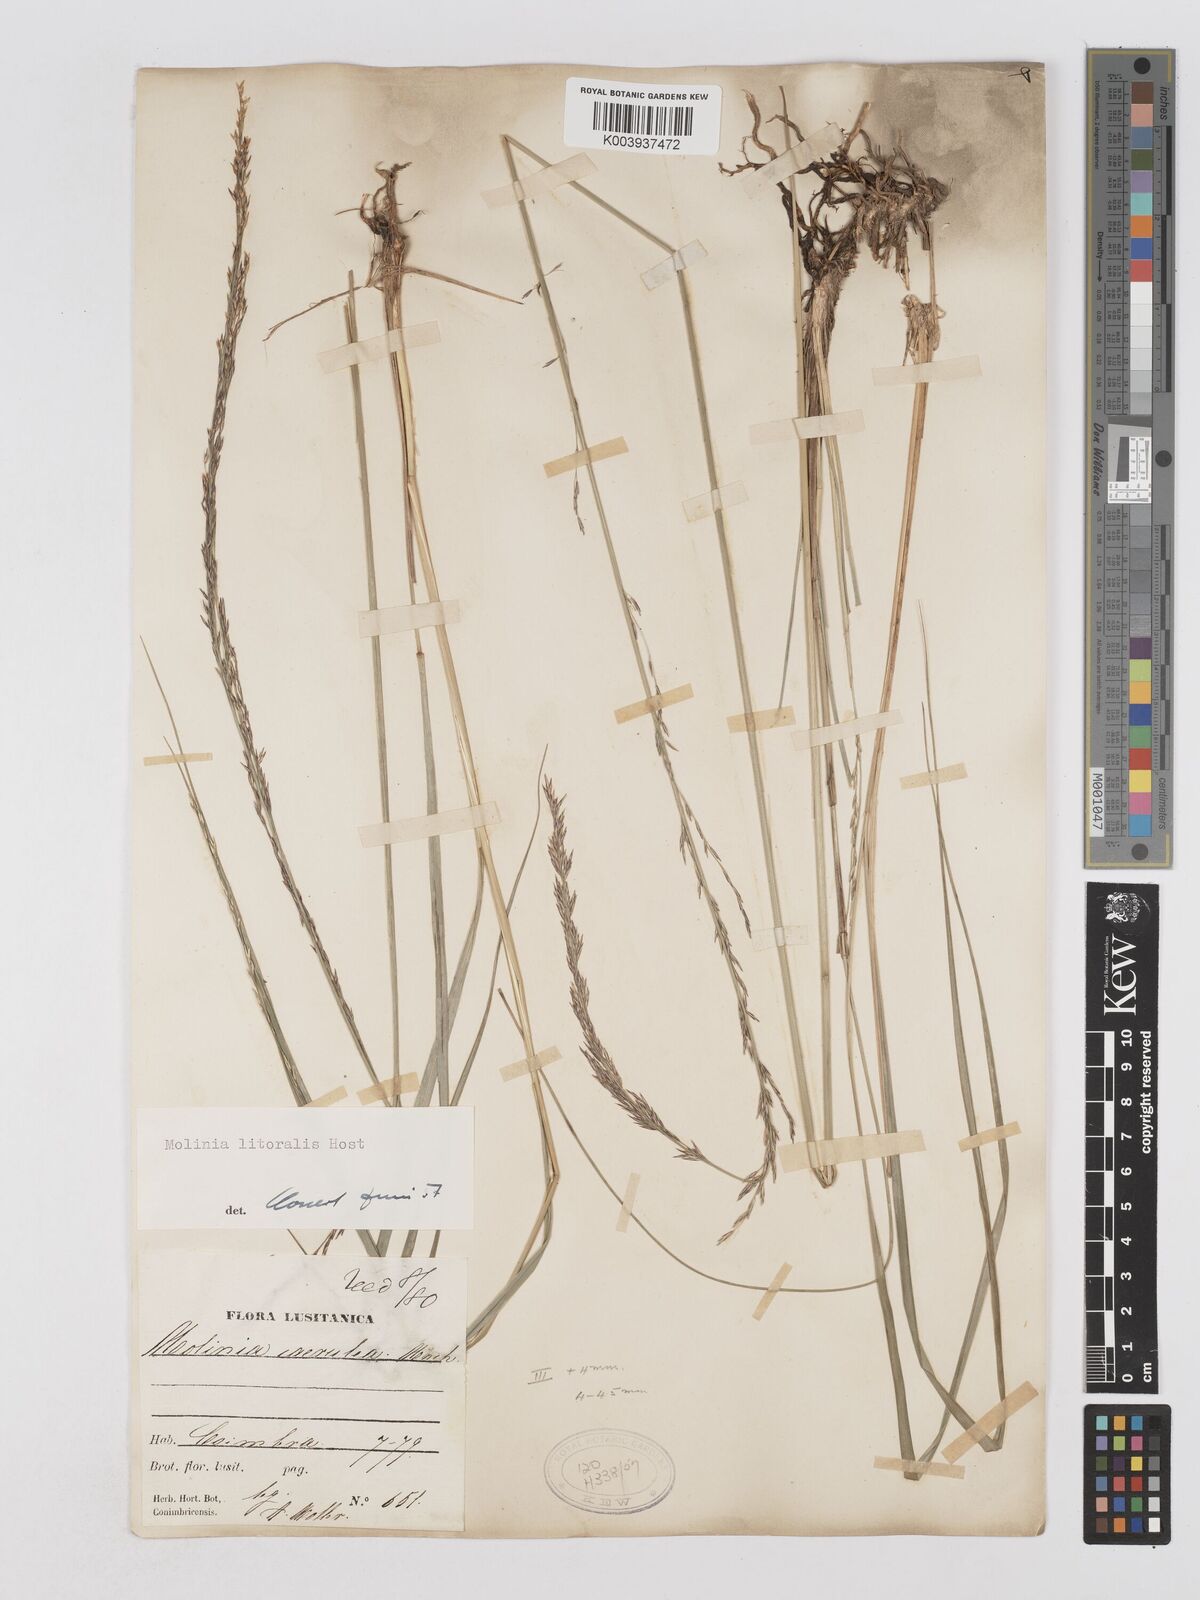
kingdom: Plantae
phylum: Tracheophyta
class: Liliopsida
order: Poales
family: Poaceae
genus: Molinia
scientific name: Molinia caerulea
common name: Purple moor-grass
